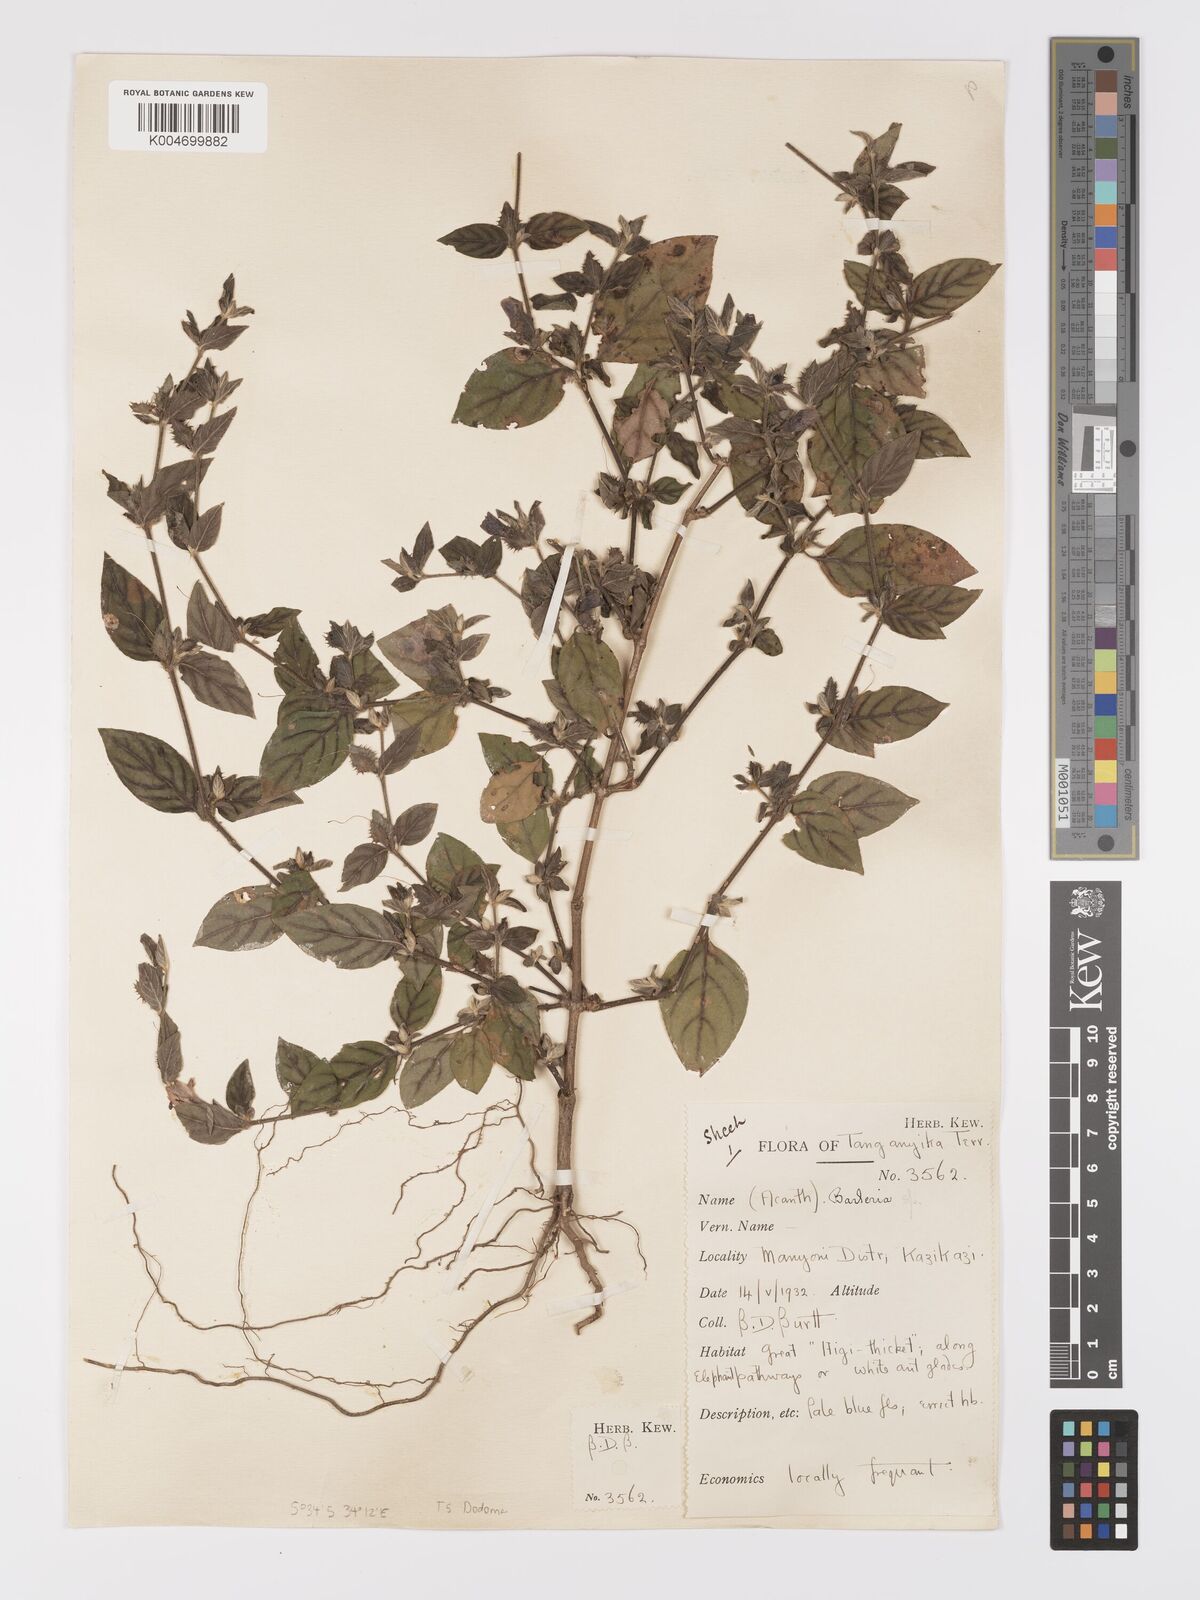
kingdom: Plantae
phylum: Tracheophyta
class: Magnoliopsida
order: Lamiales
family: Acanthaceae
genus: Barleria
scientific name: Barleria ventricosa
